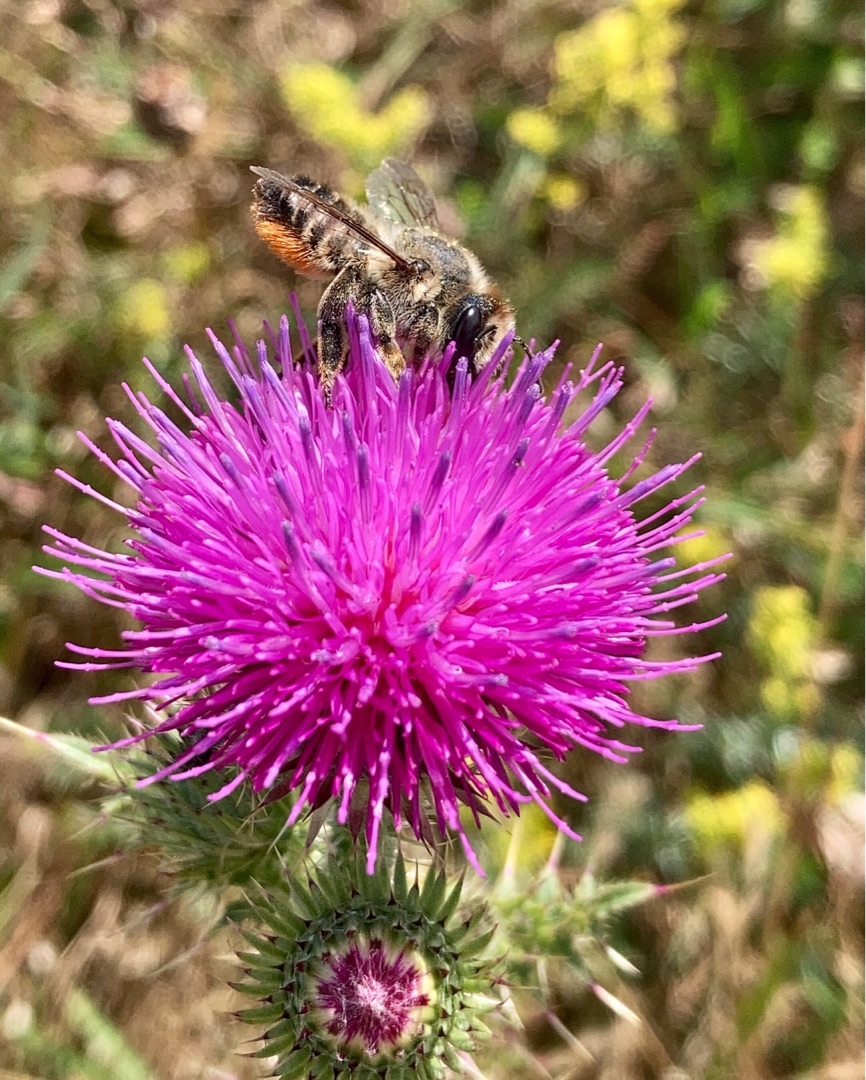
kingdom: Plantae
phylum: Tracheophyta
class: Magnoliopsida
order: Asterales
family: Asteraceae
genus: Carduus
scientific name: Carduus acanthoides
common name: Tornet tidsel
